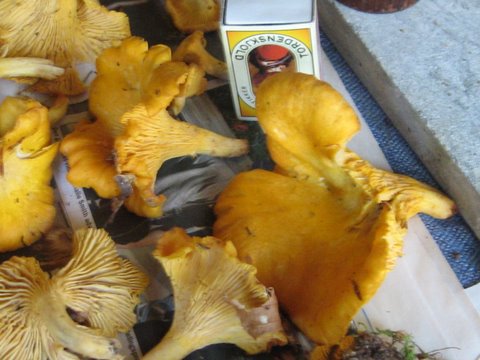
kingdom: Fungi
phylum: Basidiomycota
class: Agaricomycetes
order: Cantharellales
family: Hydnaceae
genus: Cantharellus
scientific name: Cantharellus cibarius
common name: almindelig kantarel
